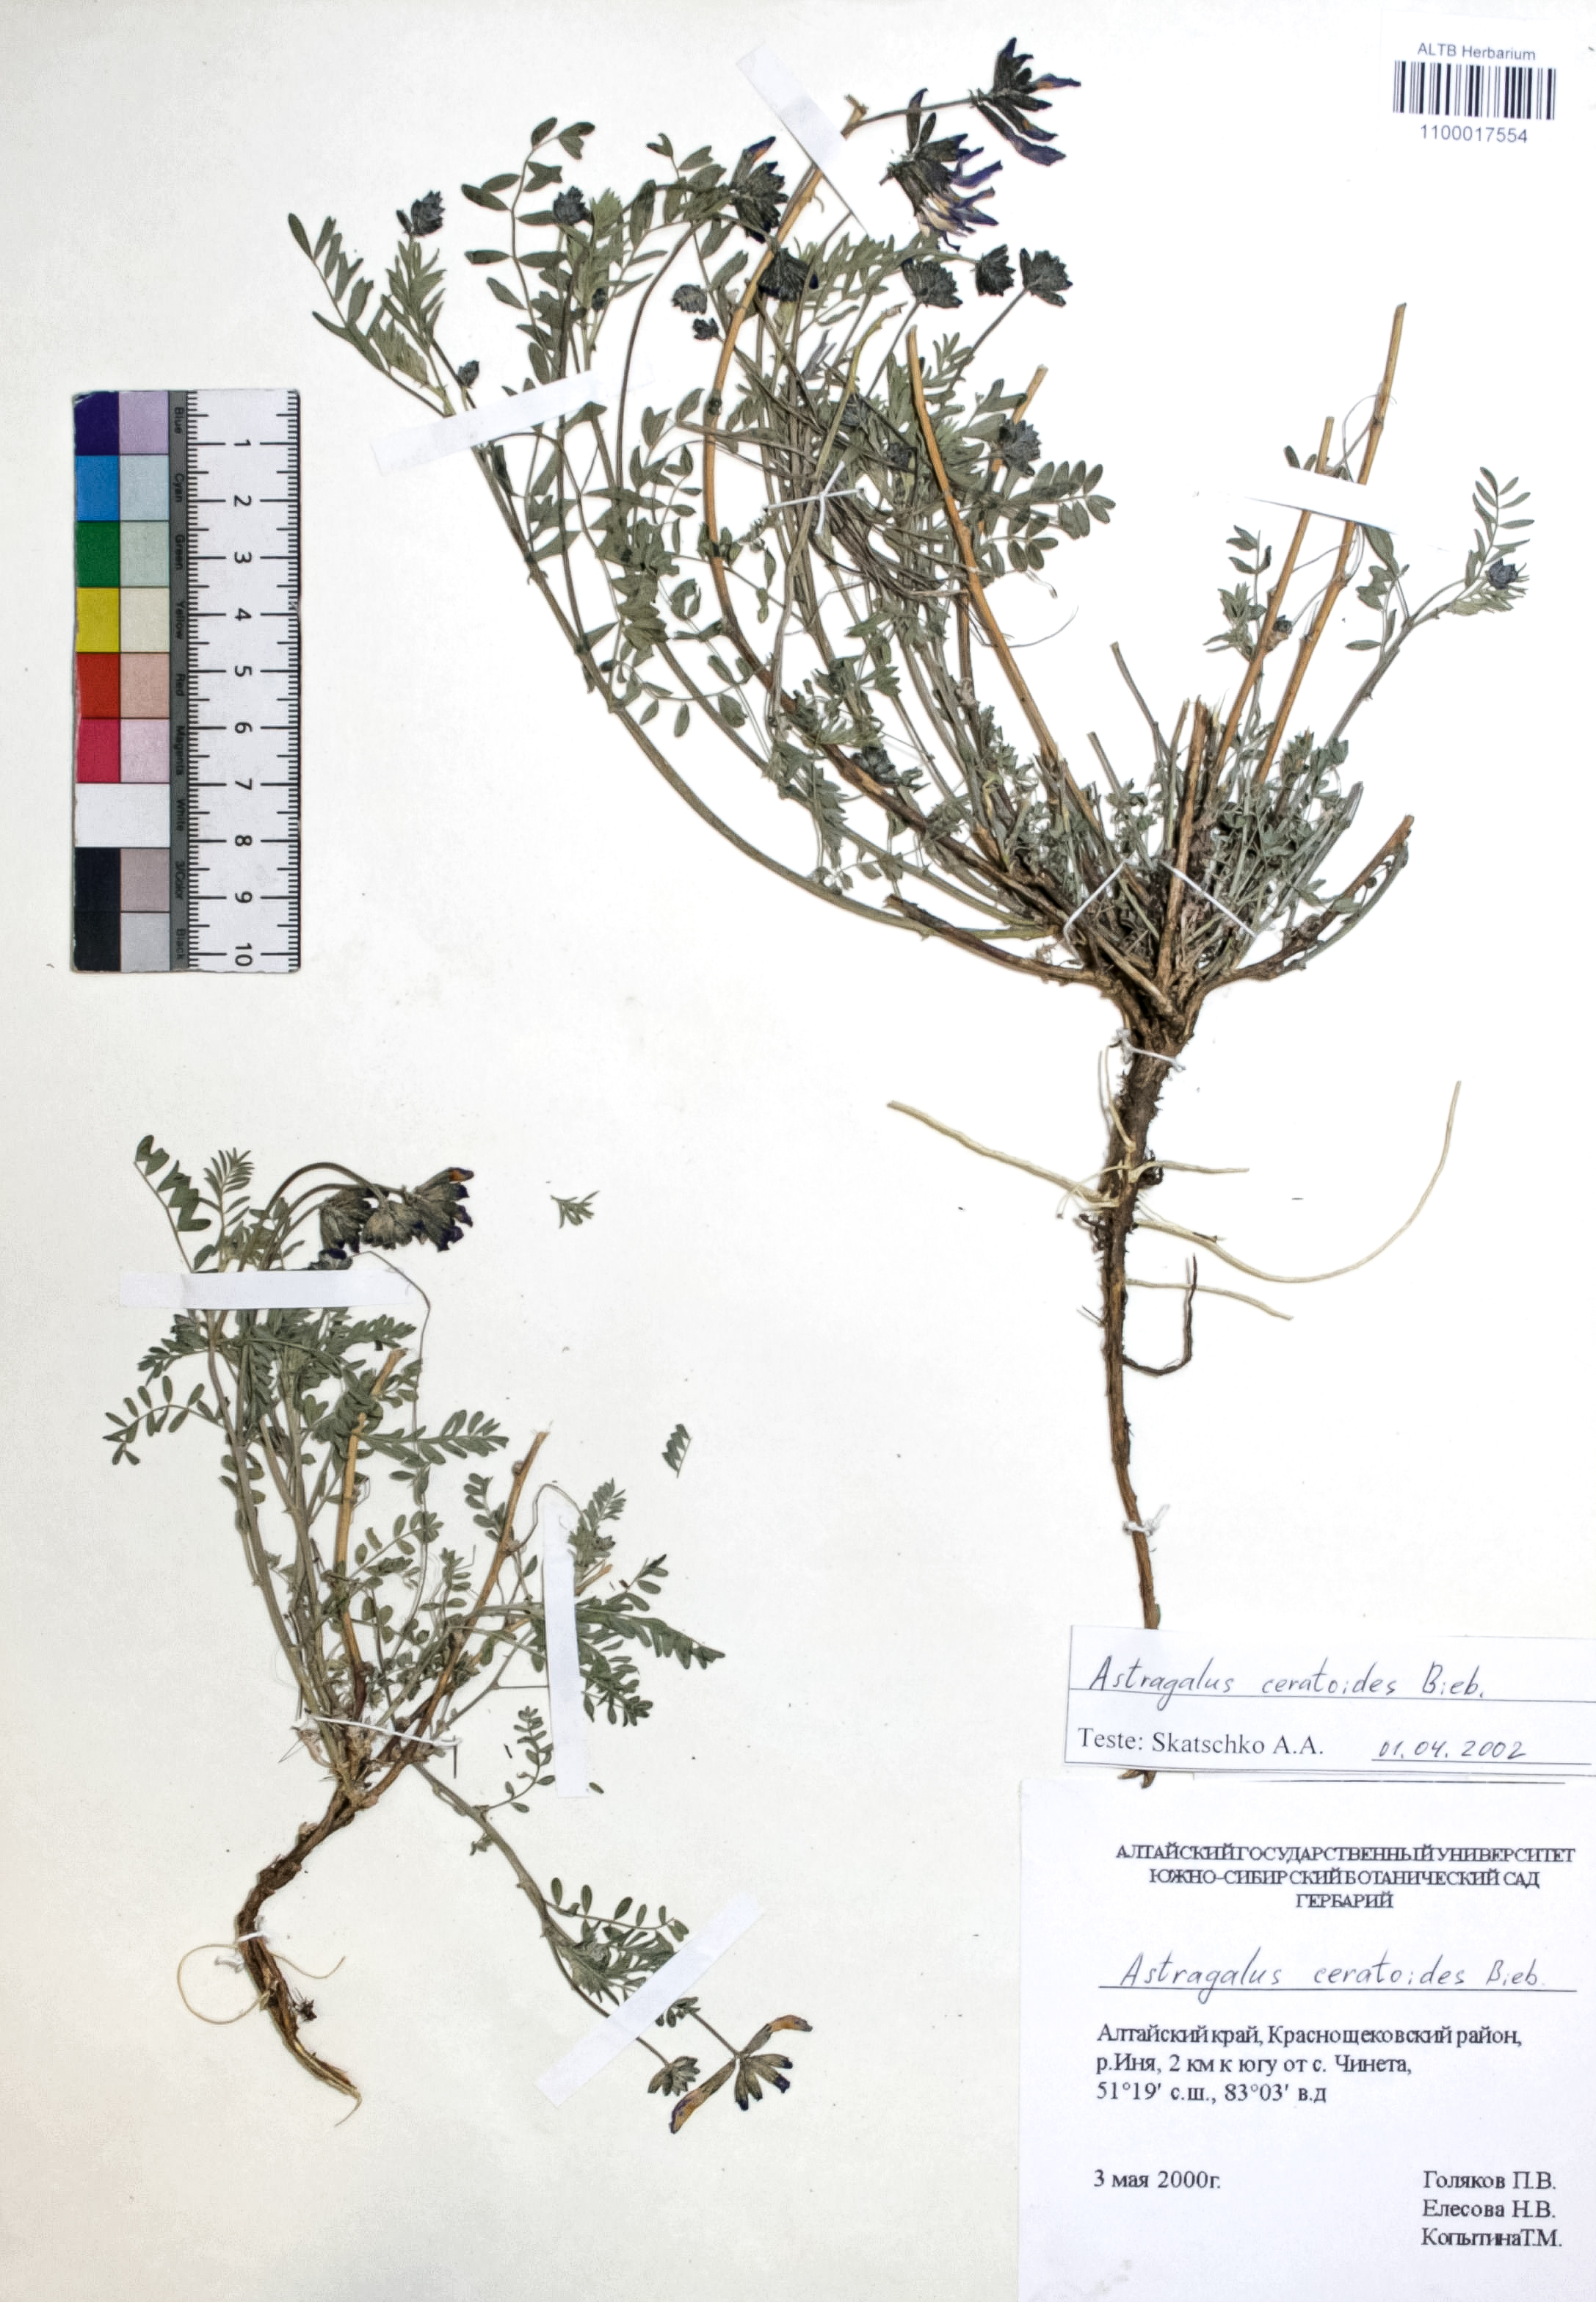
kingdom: Plantae
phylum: Tracheophyta
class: Magnoliopsida
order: Fabales
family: Fabaceae
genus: Astragalus
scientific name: Astragalus ceratoides
